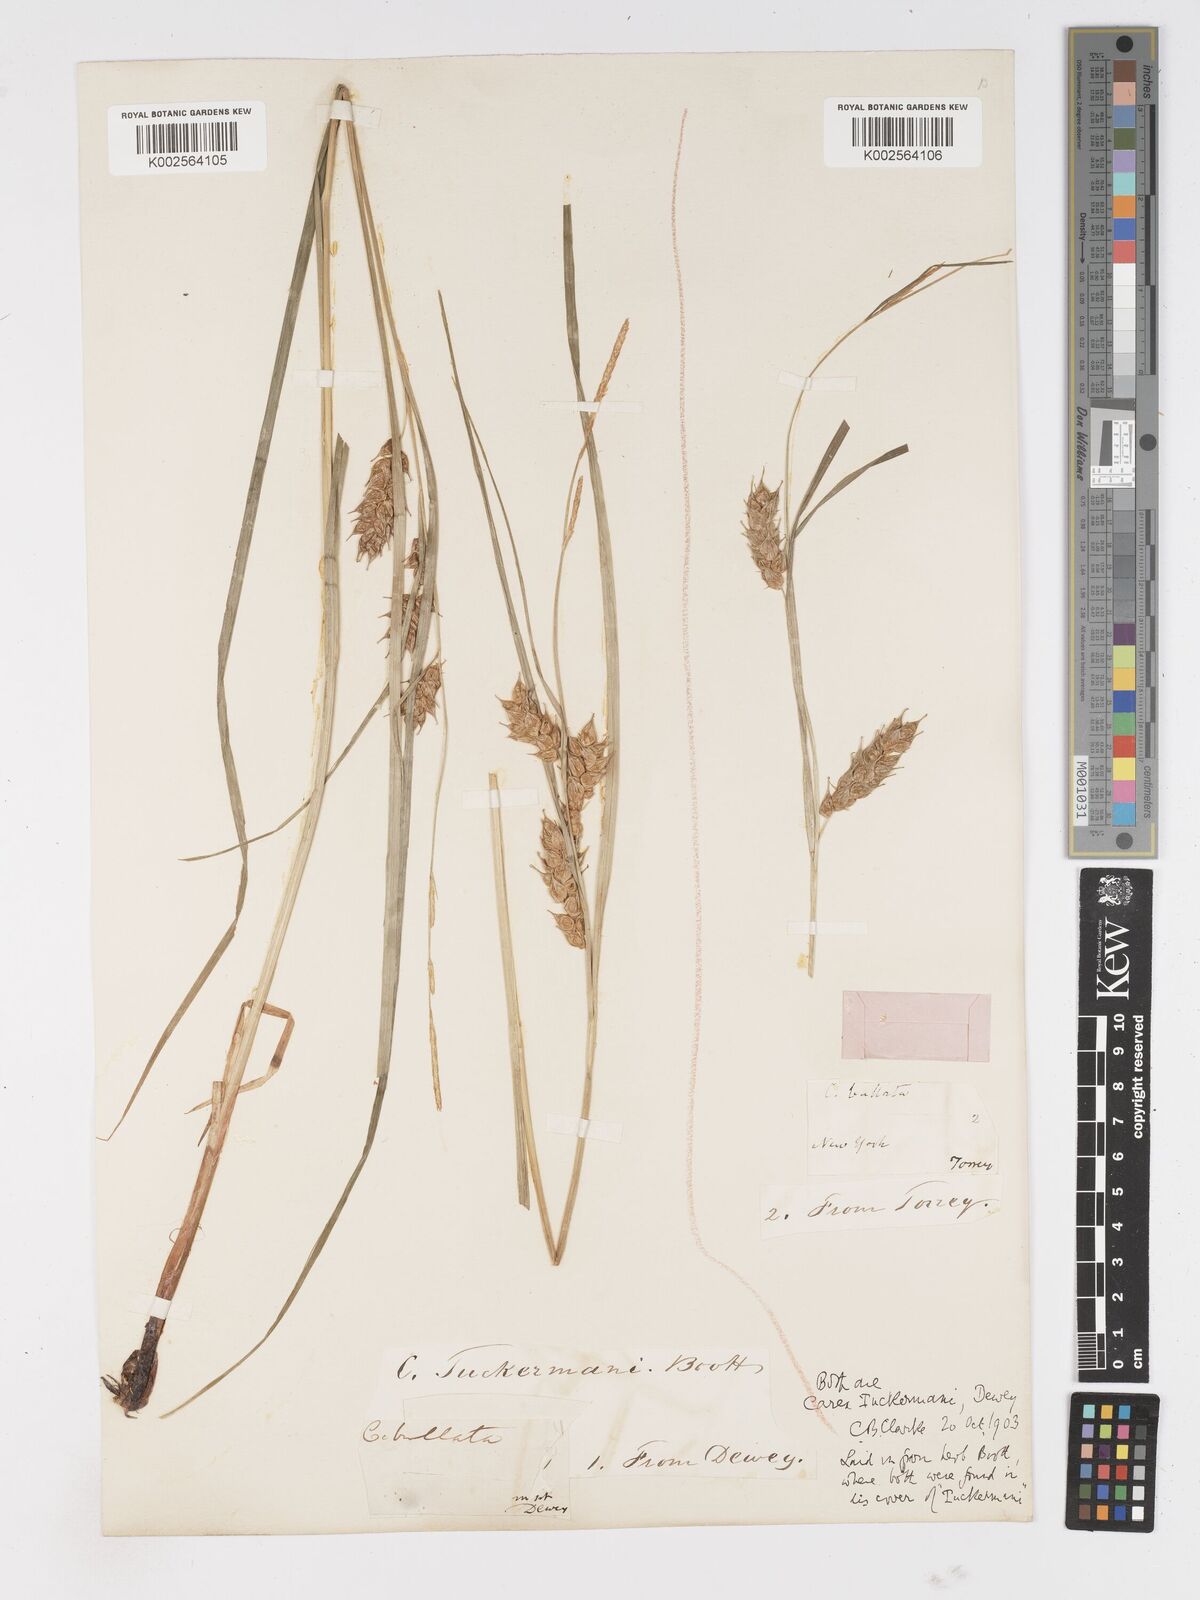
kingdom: Plantae
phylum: Tracheophyta
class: Liliopsida
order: Poales
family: Cyperaceae
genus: Carex
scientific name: Carex tuckermanii
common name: Tuckerman's sedge
